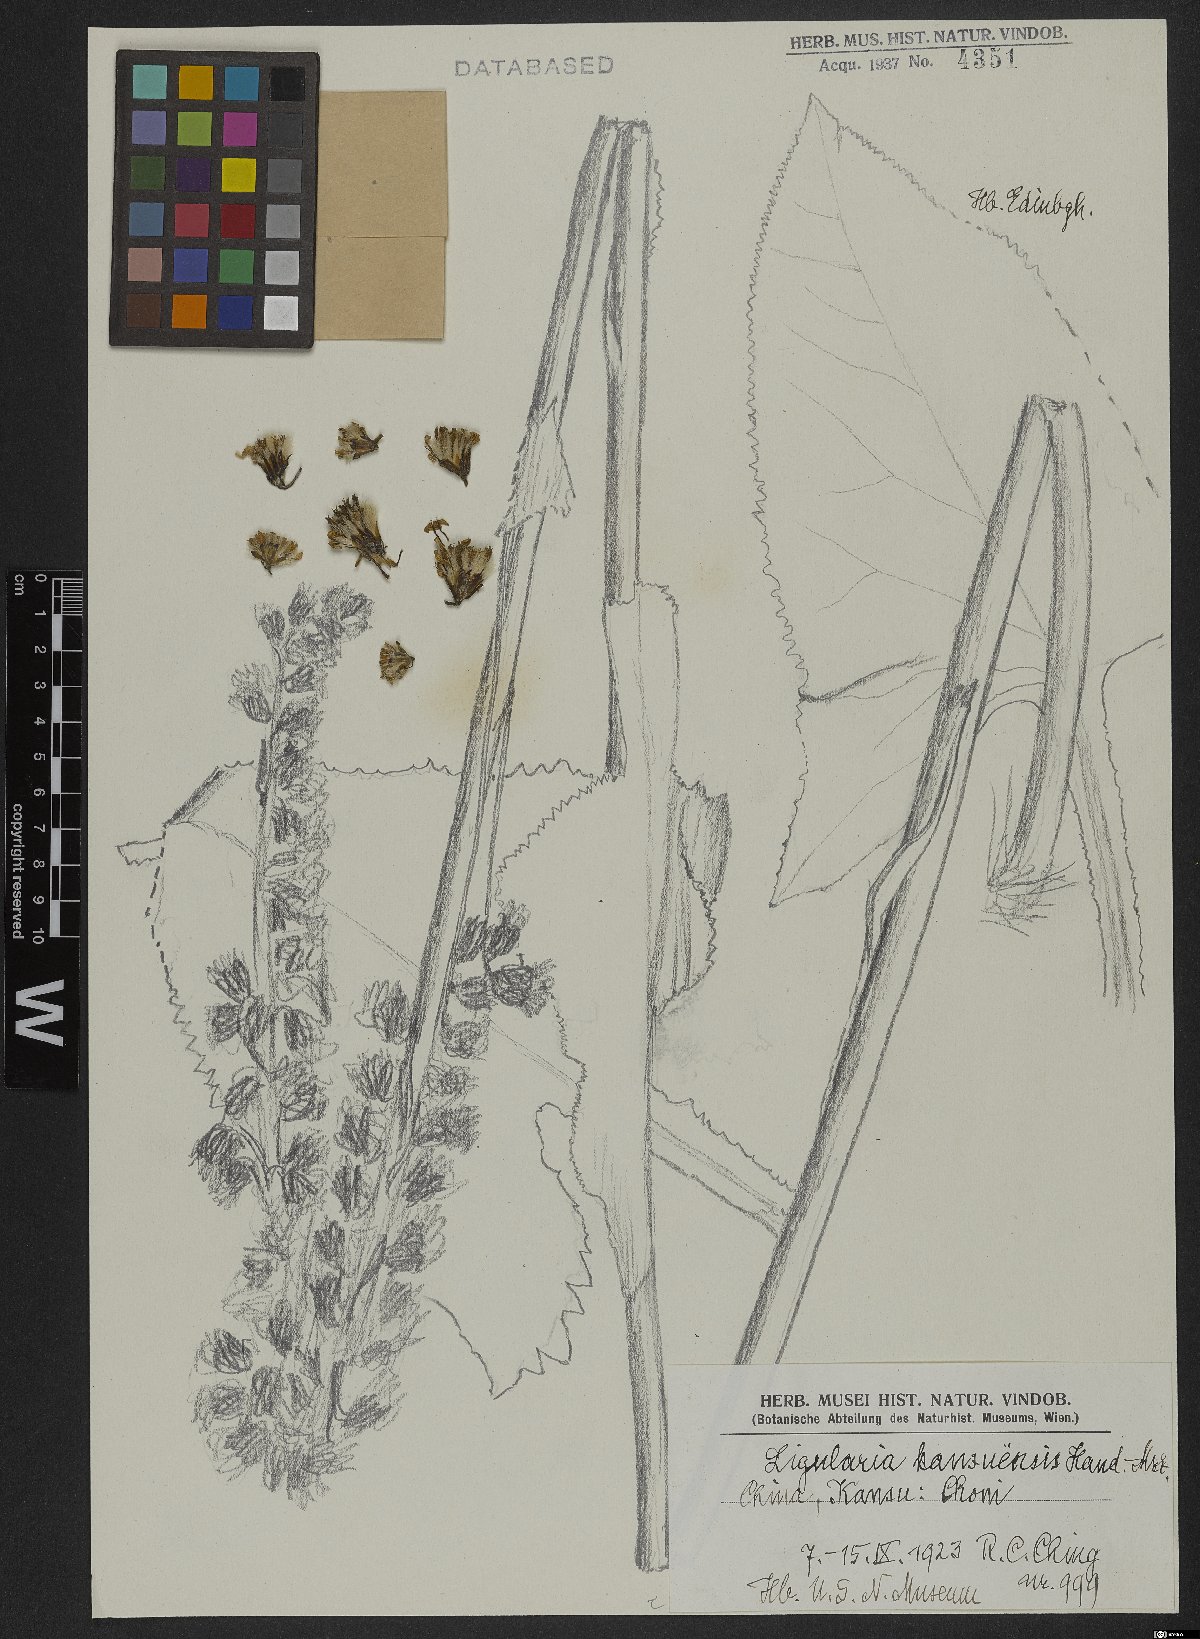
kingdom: Plantae
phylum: Tracheophyta
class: Magnoliopsida
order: Asterales
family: Asteraceae
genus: Ligularia
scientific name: Ligularia sagitta
